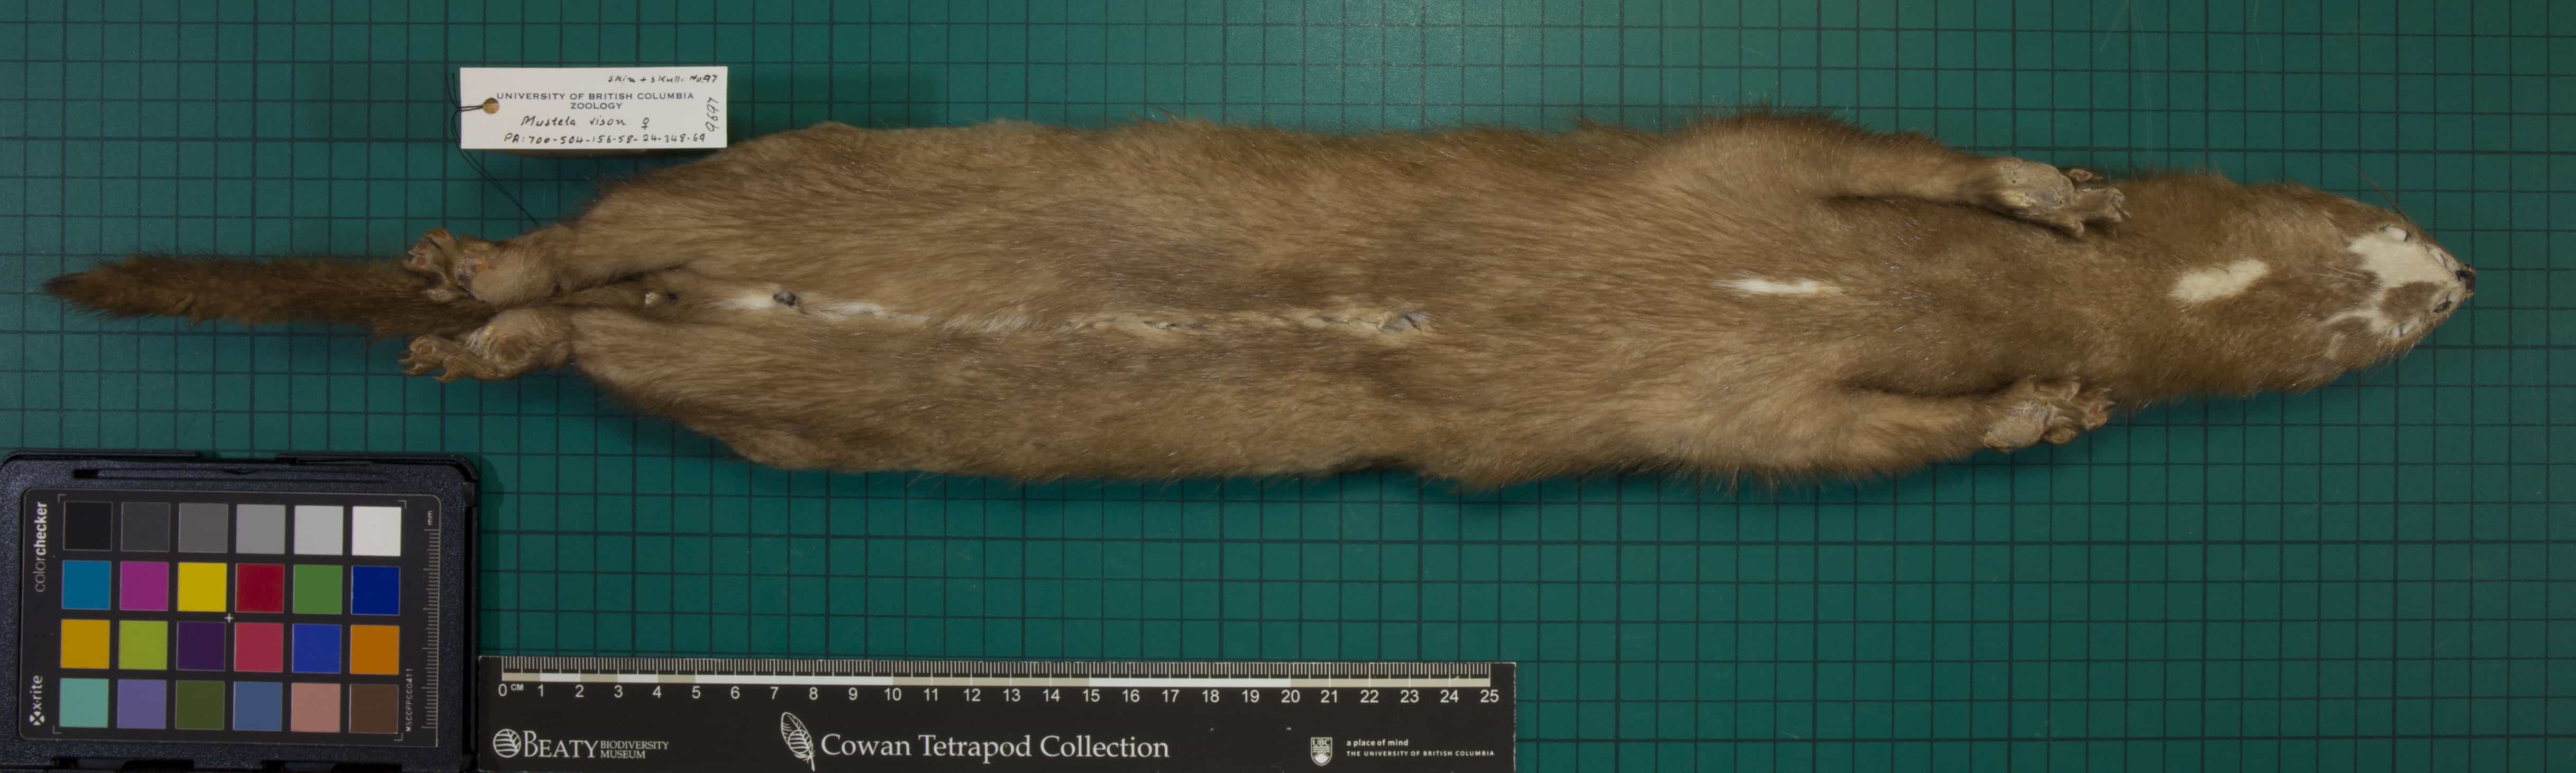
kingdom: Animalia
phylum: Chordata
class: Mammalia
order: Carnivora
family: Mustelidae
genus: Mustela
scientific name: Mustela vison
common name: American Mink
